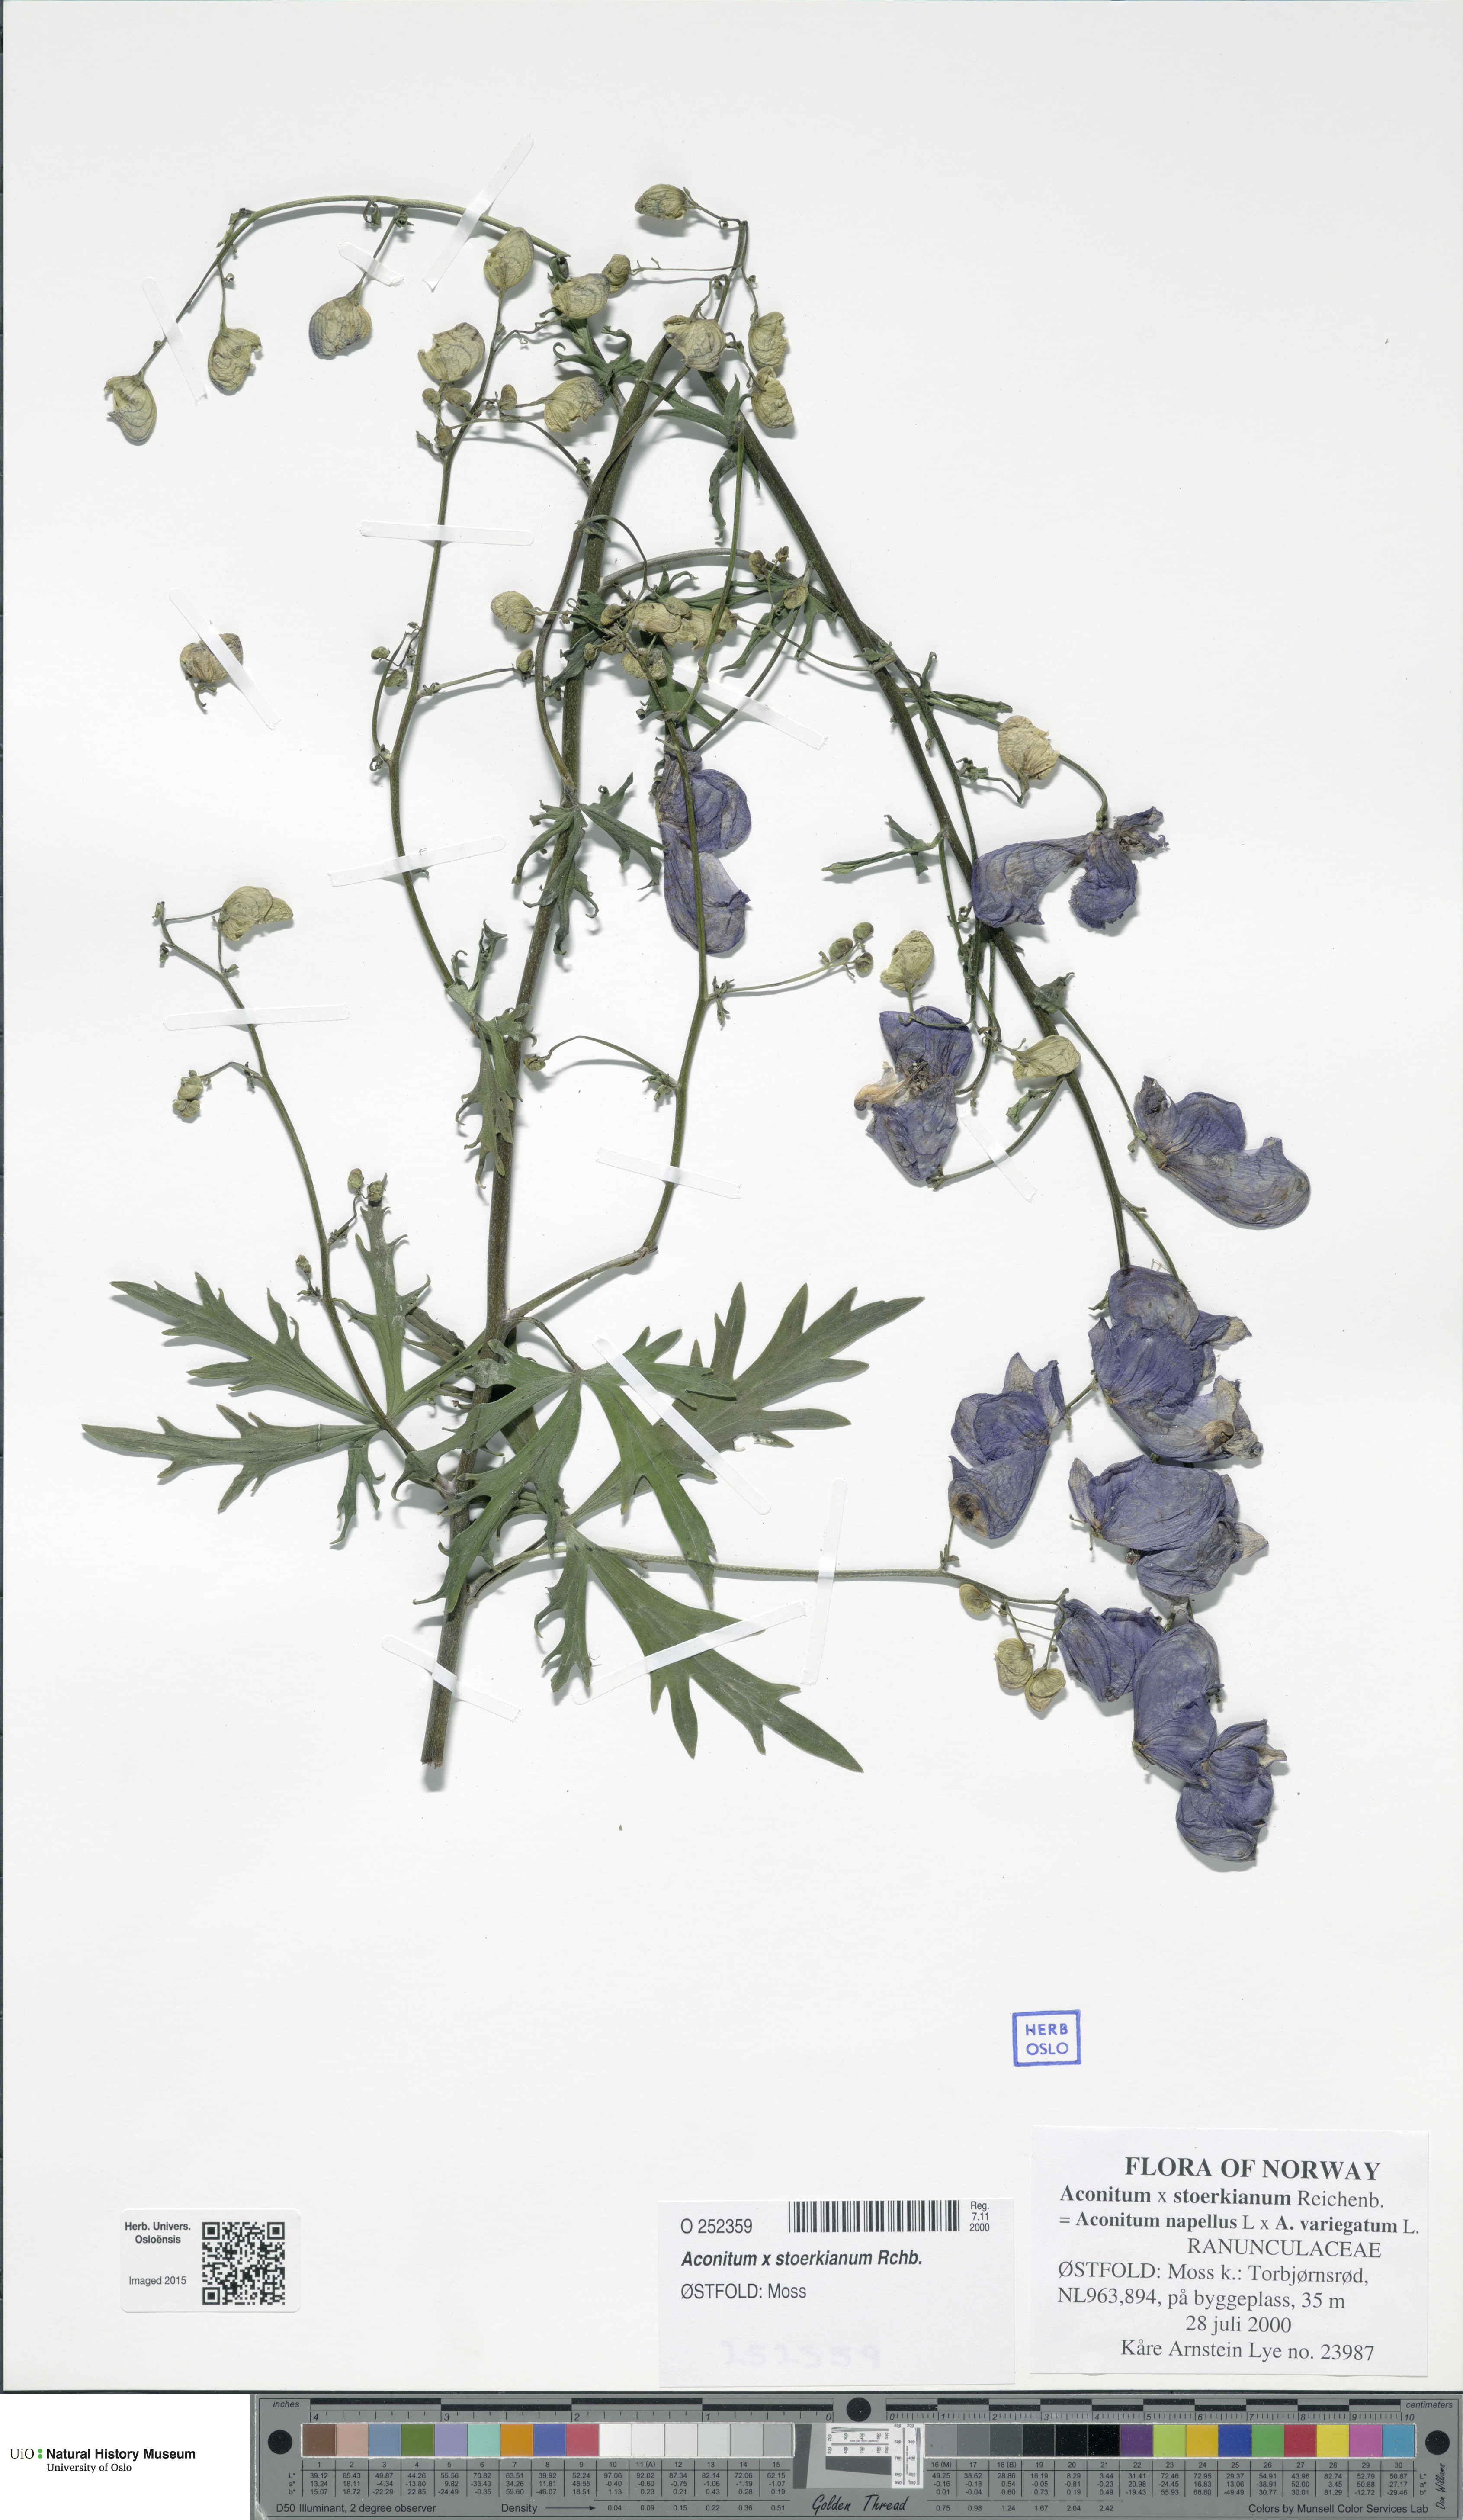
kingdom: Plantae
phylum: Tracheophyta
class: Magnoliopsida
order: Ranunculales
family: Ranunculaceae
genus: Aconitum
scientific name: Aconitum cammarum
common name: Hybrid monk's-hood
